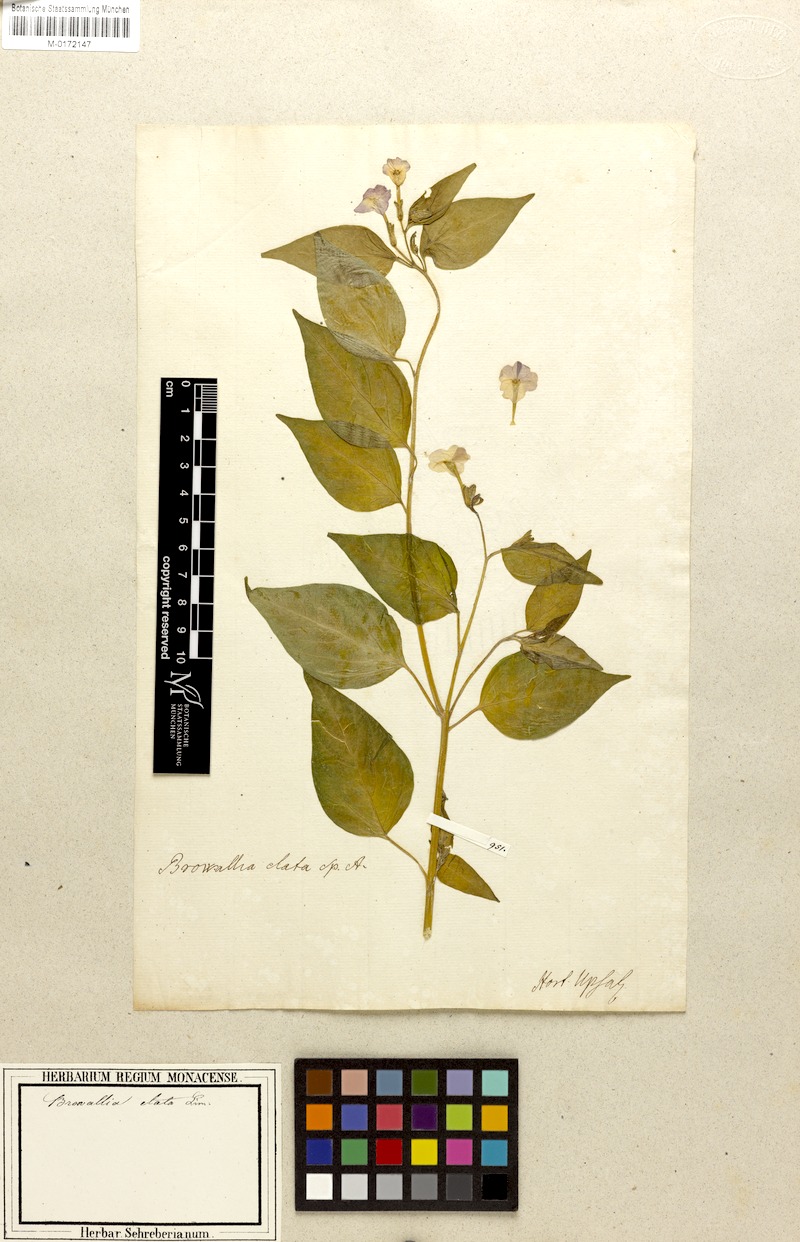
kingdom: Plantae
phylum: Tracheophyta
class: Magnoliopsida
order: Solanales
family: Solanaceae
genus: Browallia
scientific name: Browallia americana
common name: Jamaican forget-me-not
